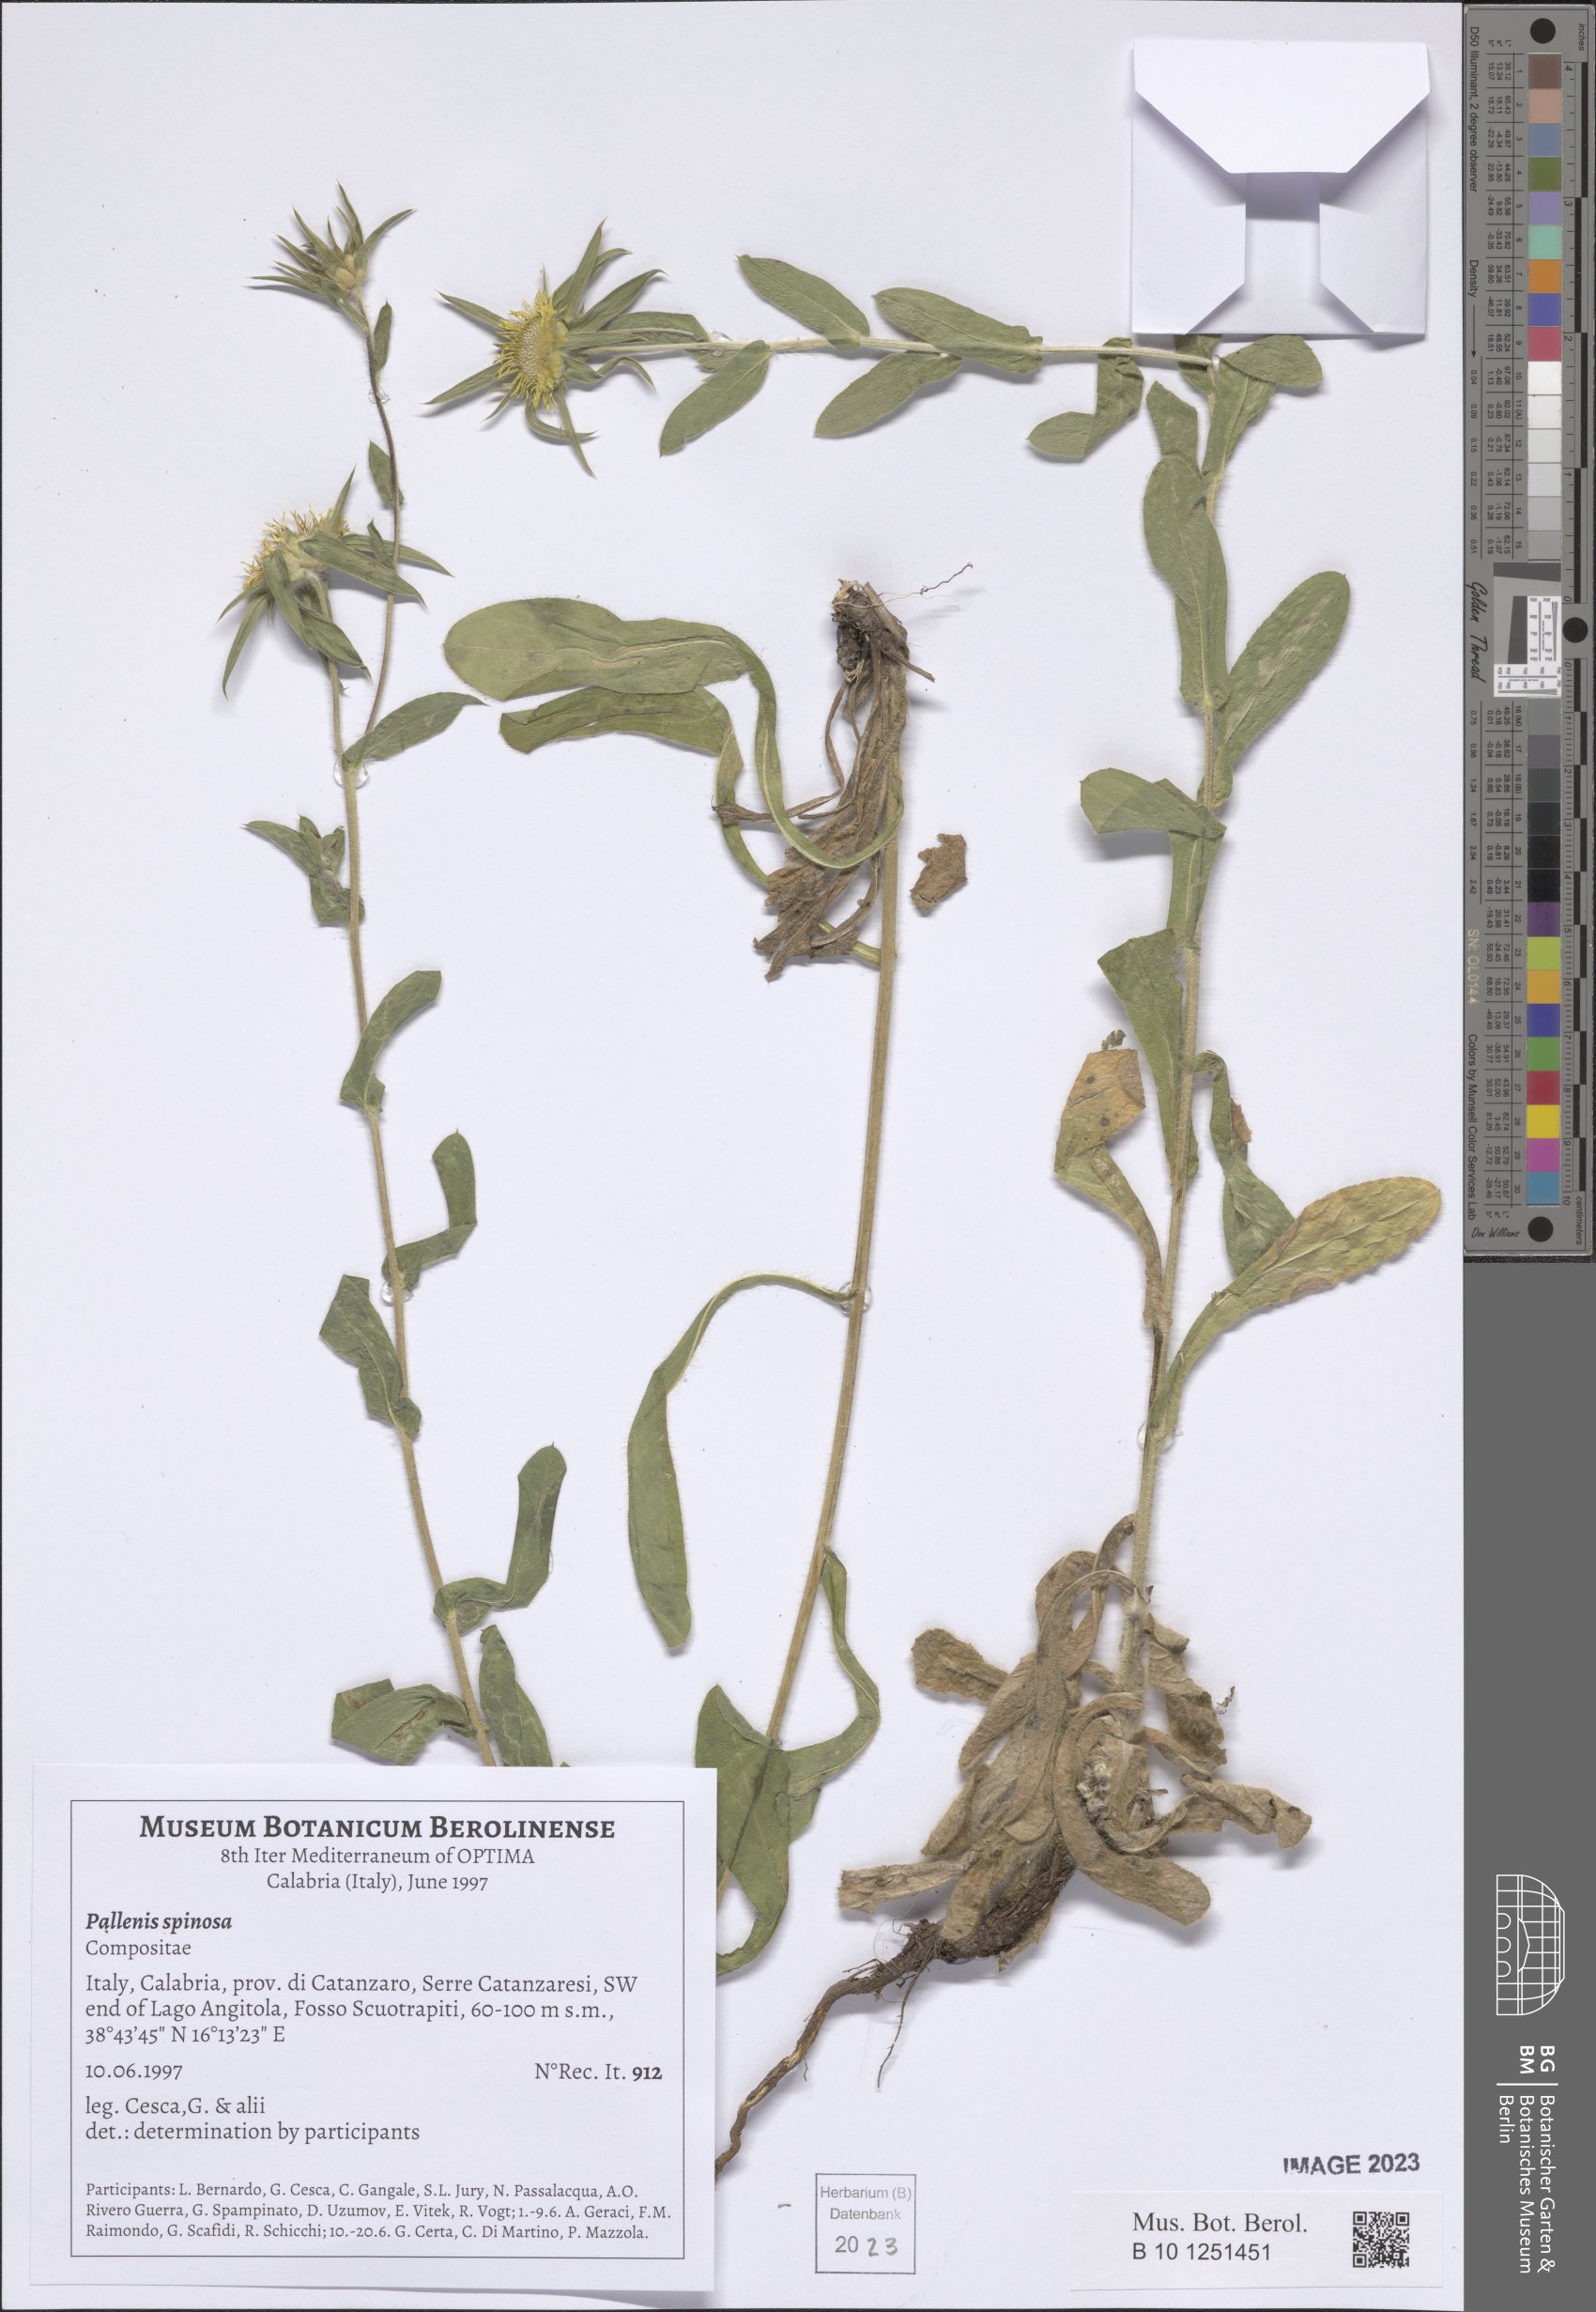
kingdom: Plantae
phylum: Tracheophyta
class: Magnoliopsida
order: Asterales
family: Asteraceae
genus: Pallenis
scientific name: Pallenis spinosa
